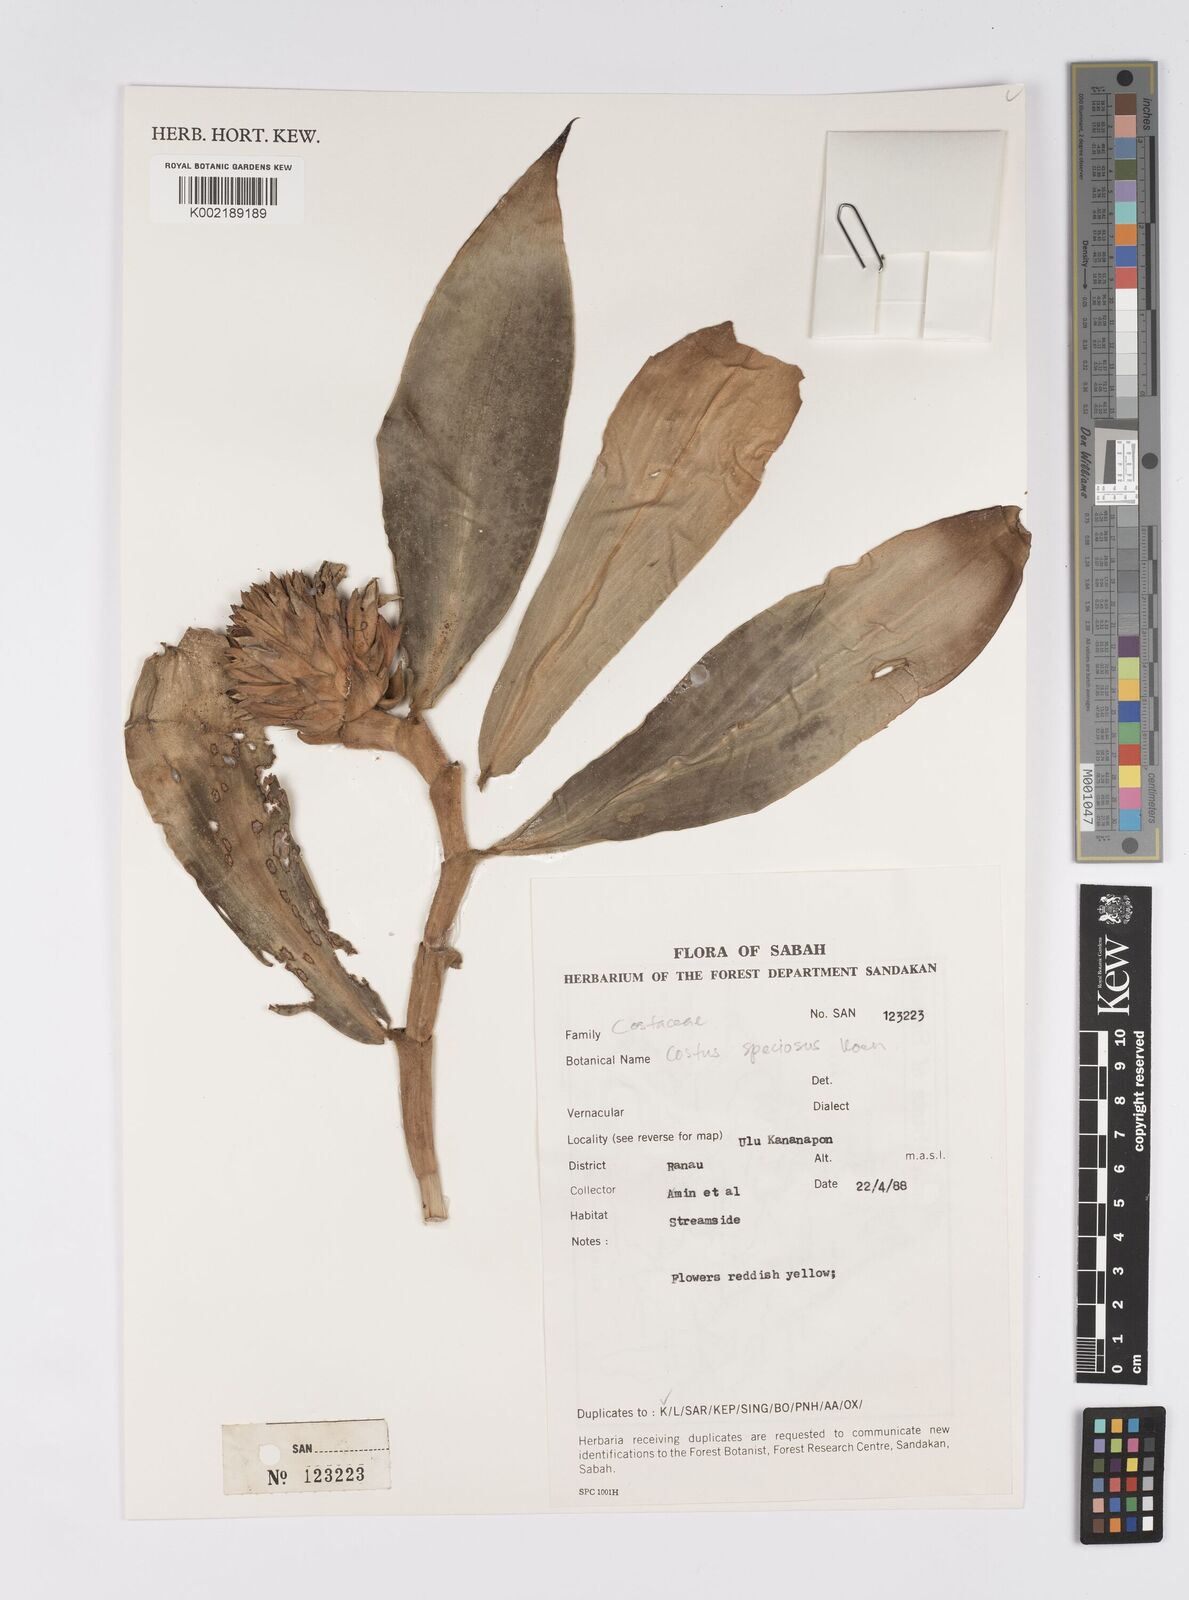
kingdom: Plantae
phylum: Tracheophyta
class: Liliopsida
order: Zingiberales
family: Costaceae
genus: Hellenia
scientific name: Hellenia speciosa
